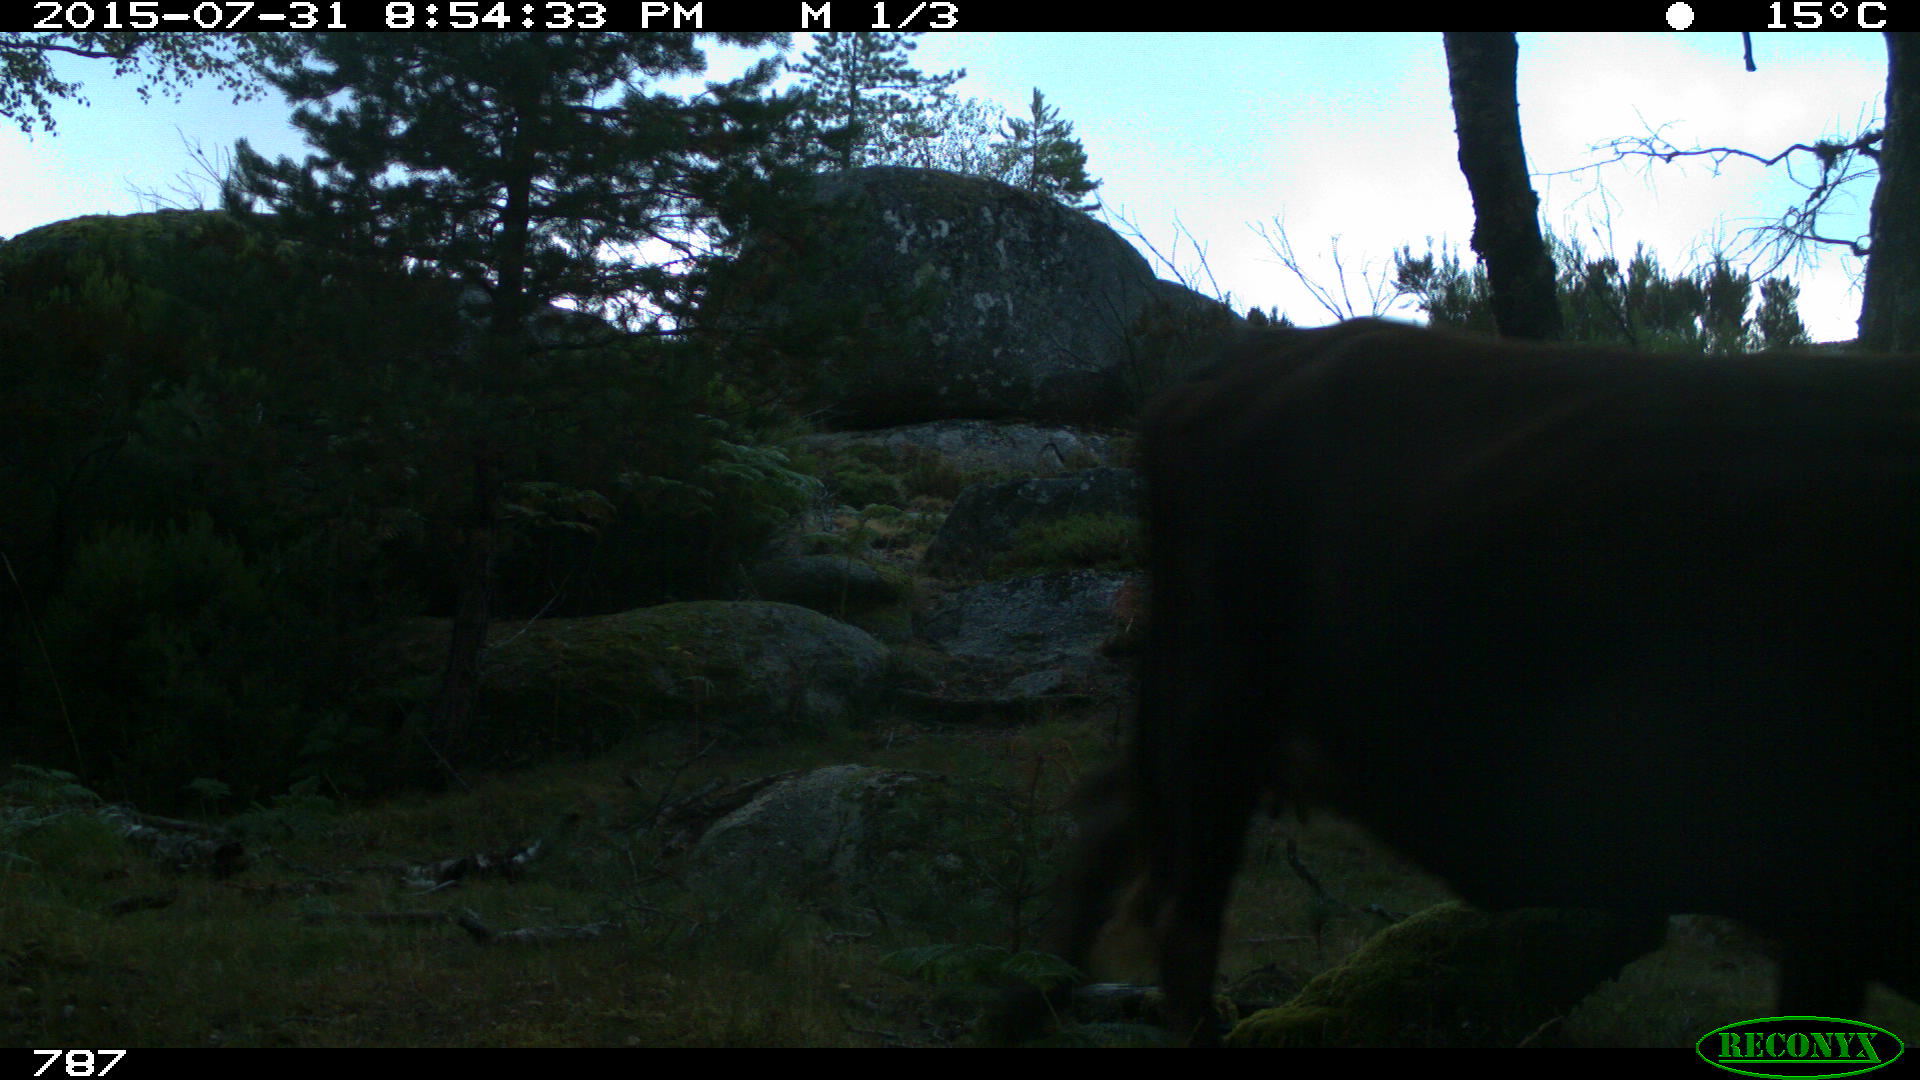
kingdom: Animalia
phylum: Chordata
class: Mammalia
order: Artiodactyla
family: Bovidae
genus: Bos
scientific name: Bos taurus
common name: Domesticated cattle
